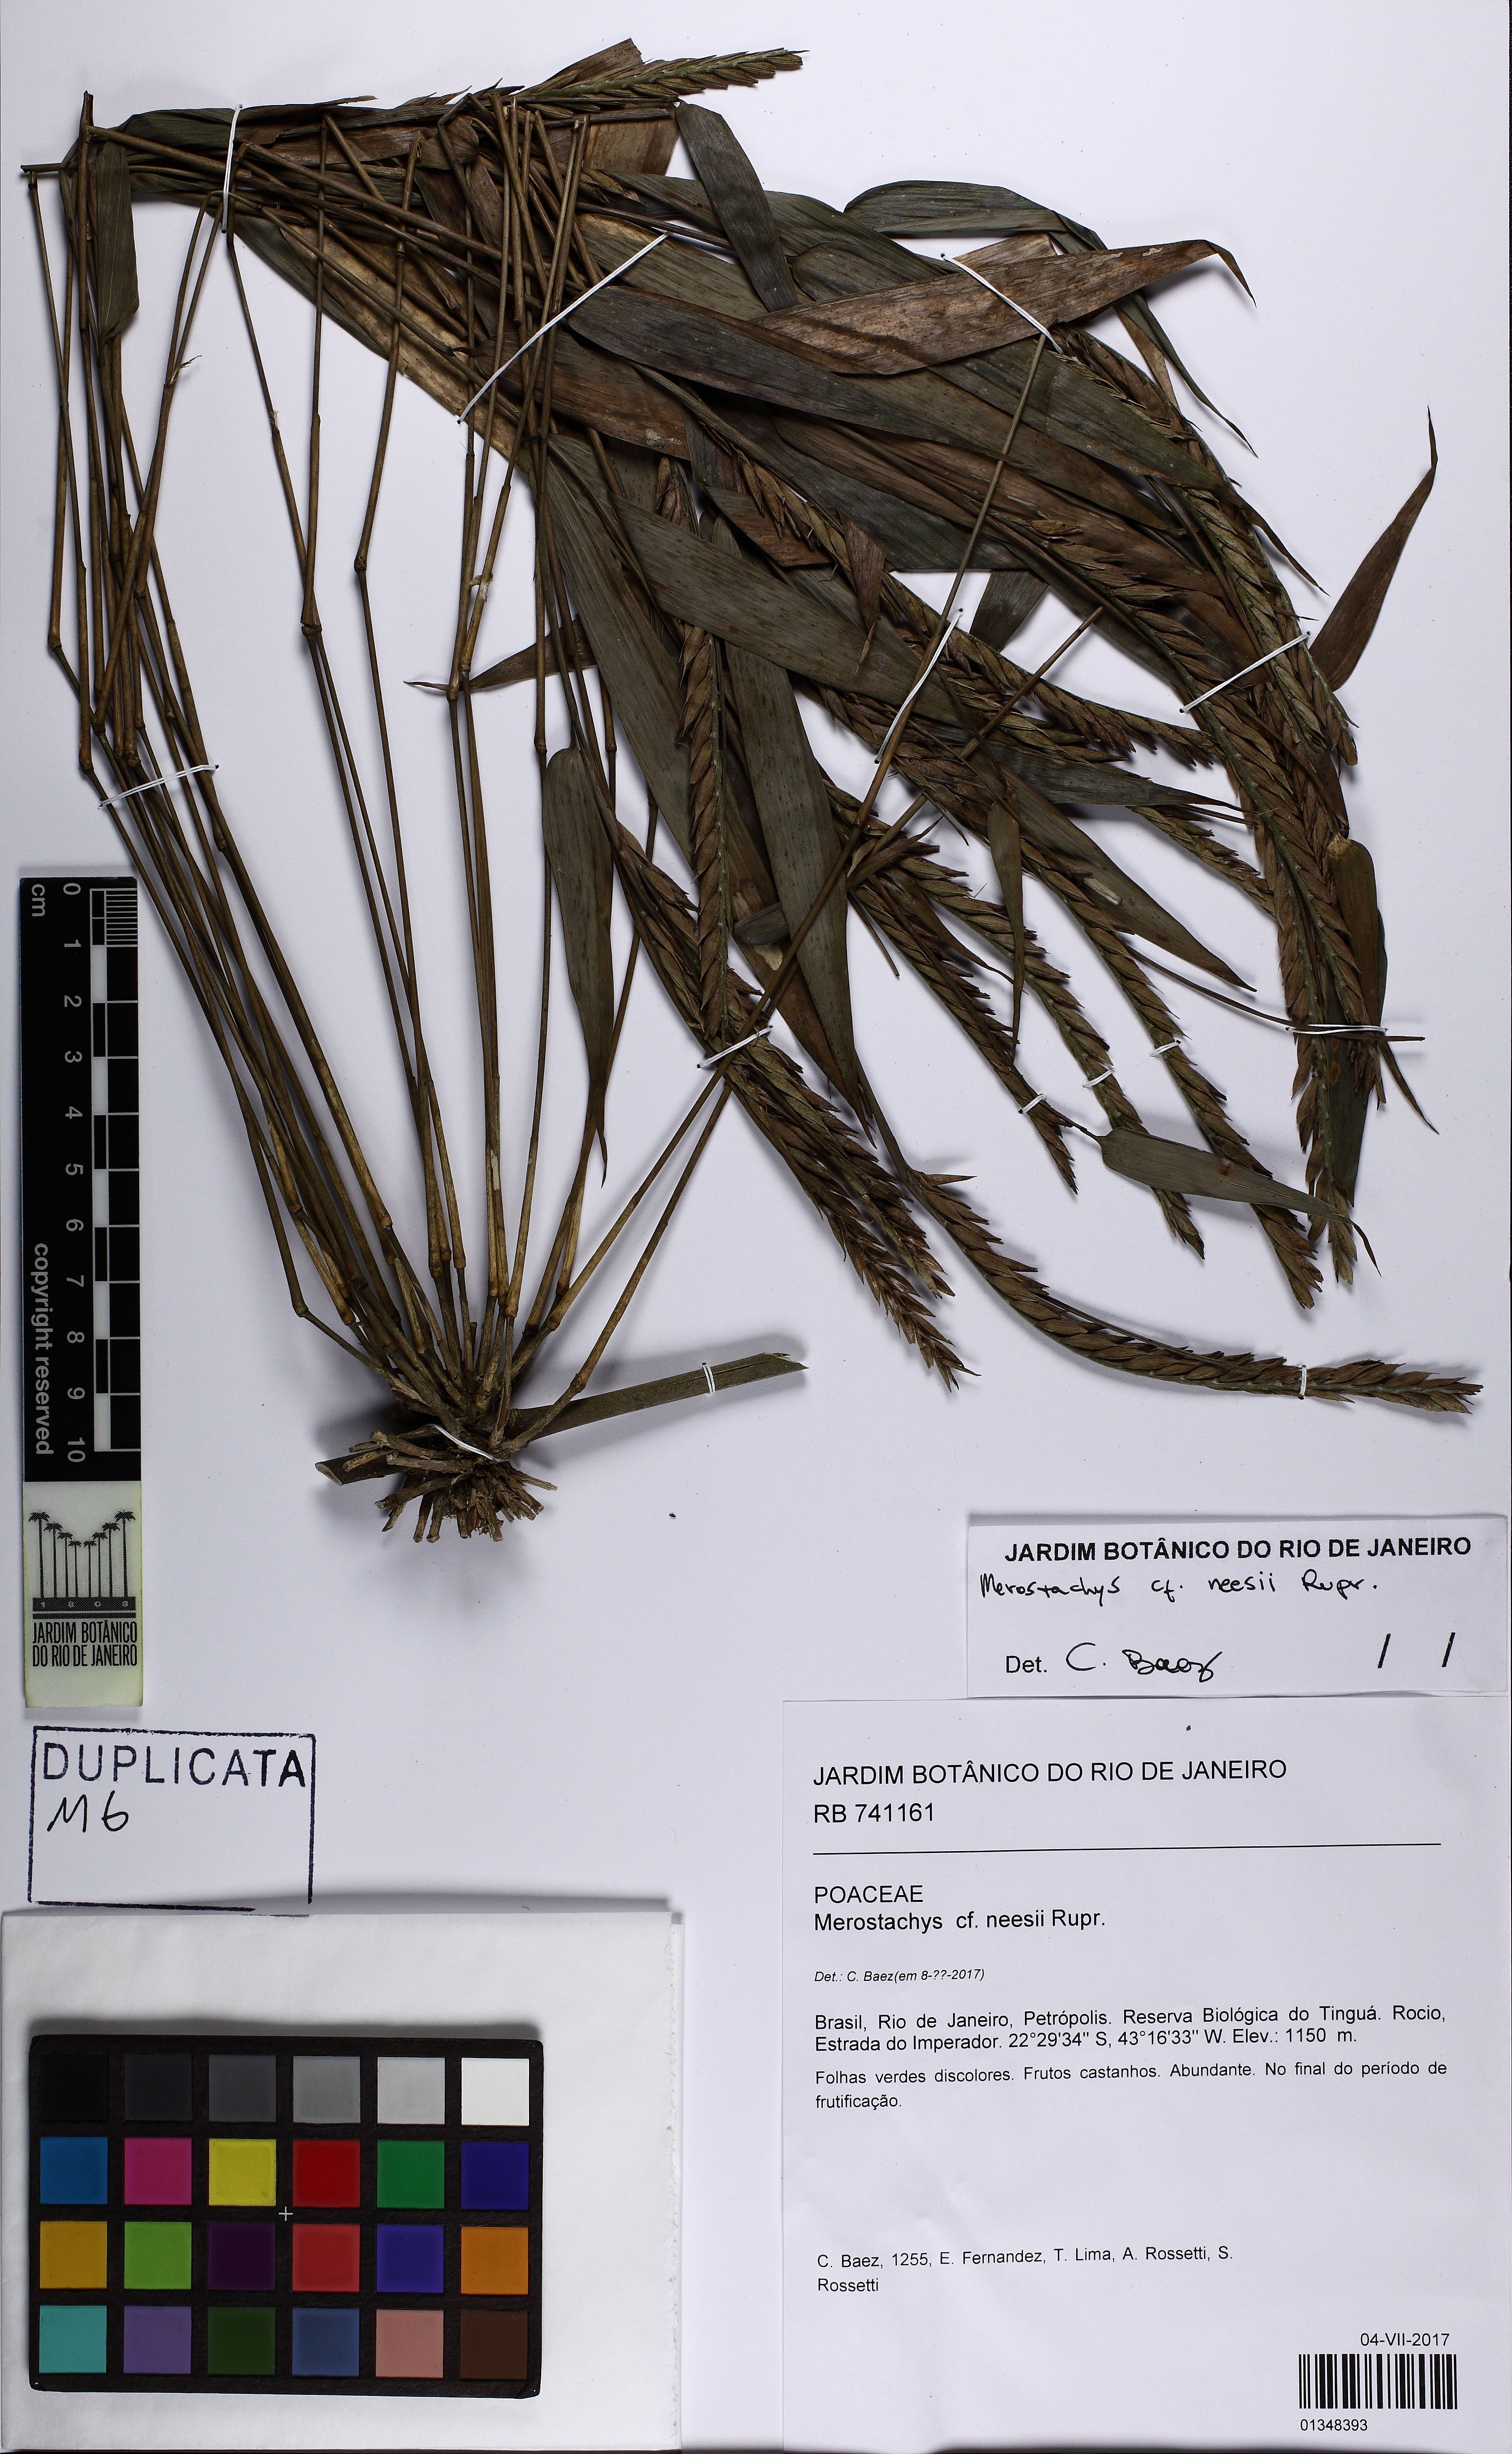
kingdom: Plantae
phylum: Tracheophyta
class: Liliopsida
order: Poales
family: Poaceae
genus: Merostachys
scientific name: Merostachys neesii
